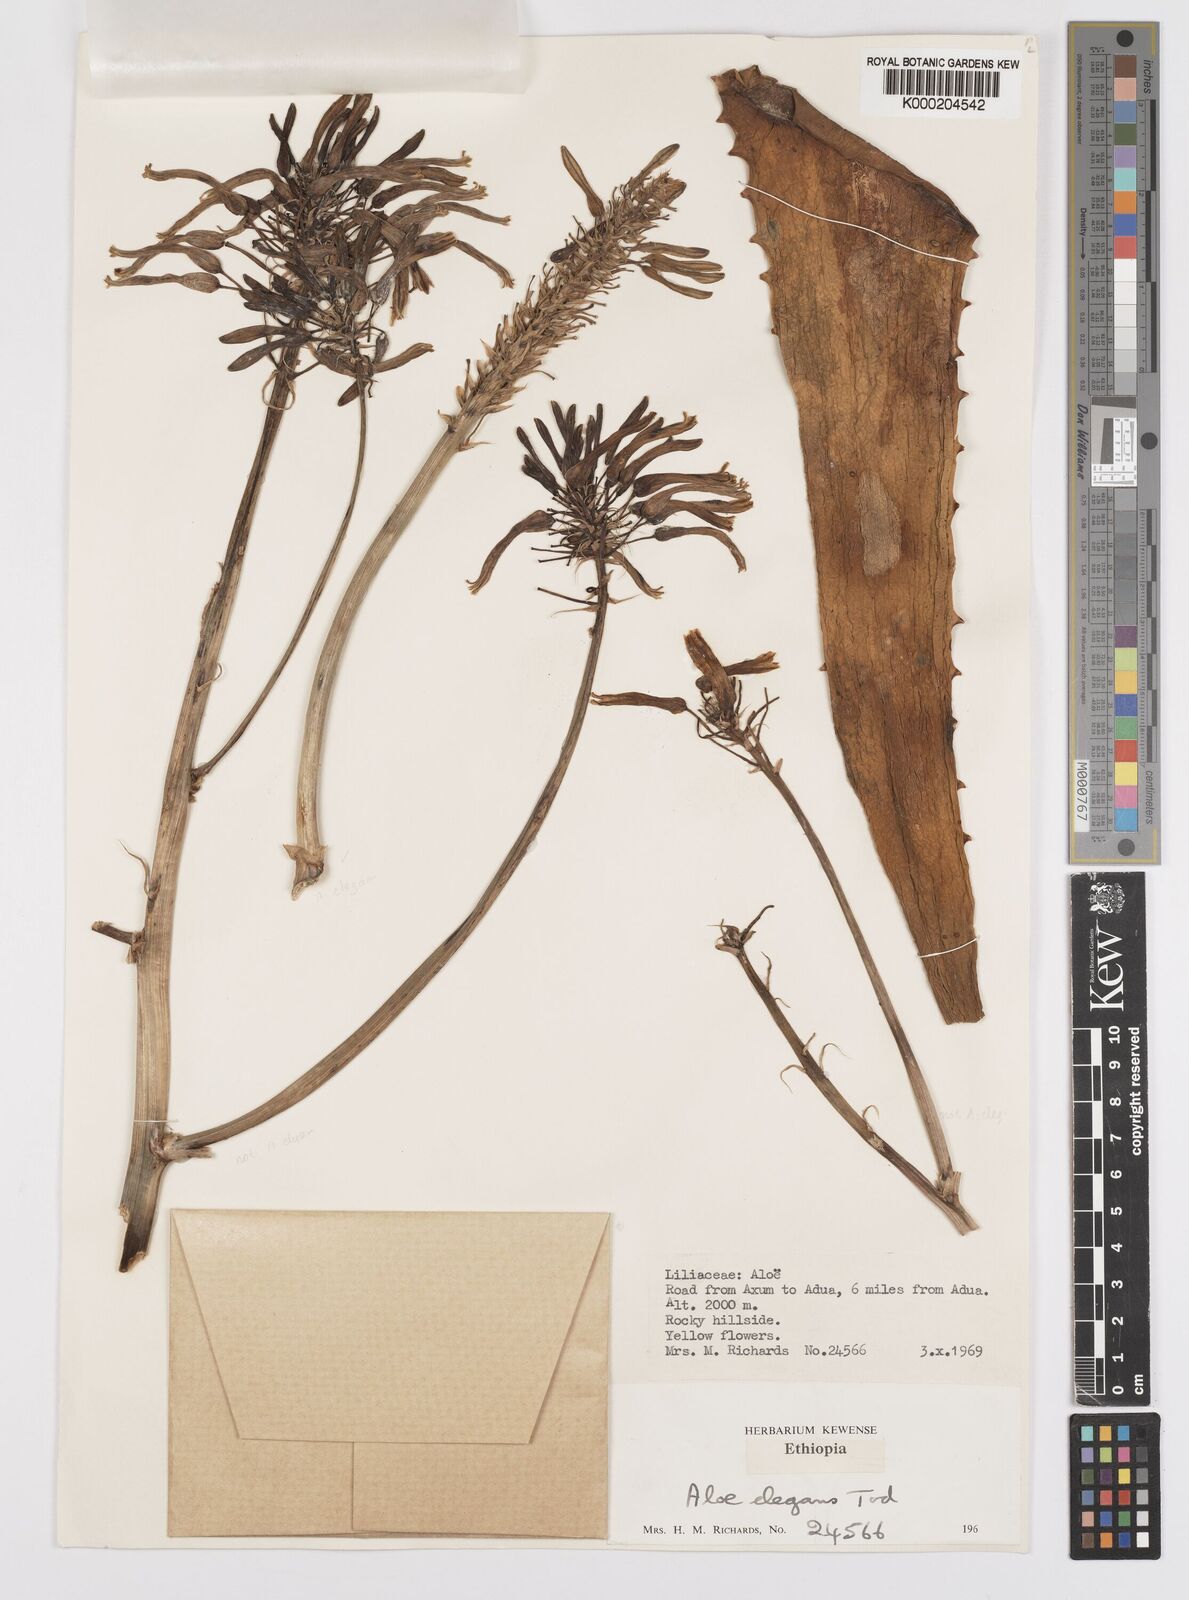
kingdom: Plantae
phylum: Tracheophyta
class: Liliopsida
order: Asparagales
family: Asphodelaceae
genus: Aloe
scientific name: Aloe elegans
